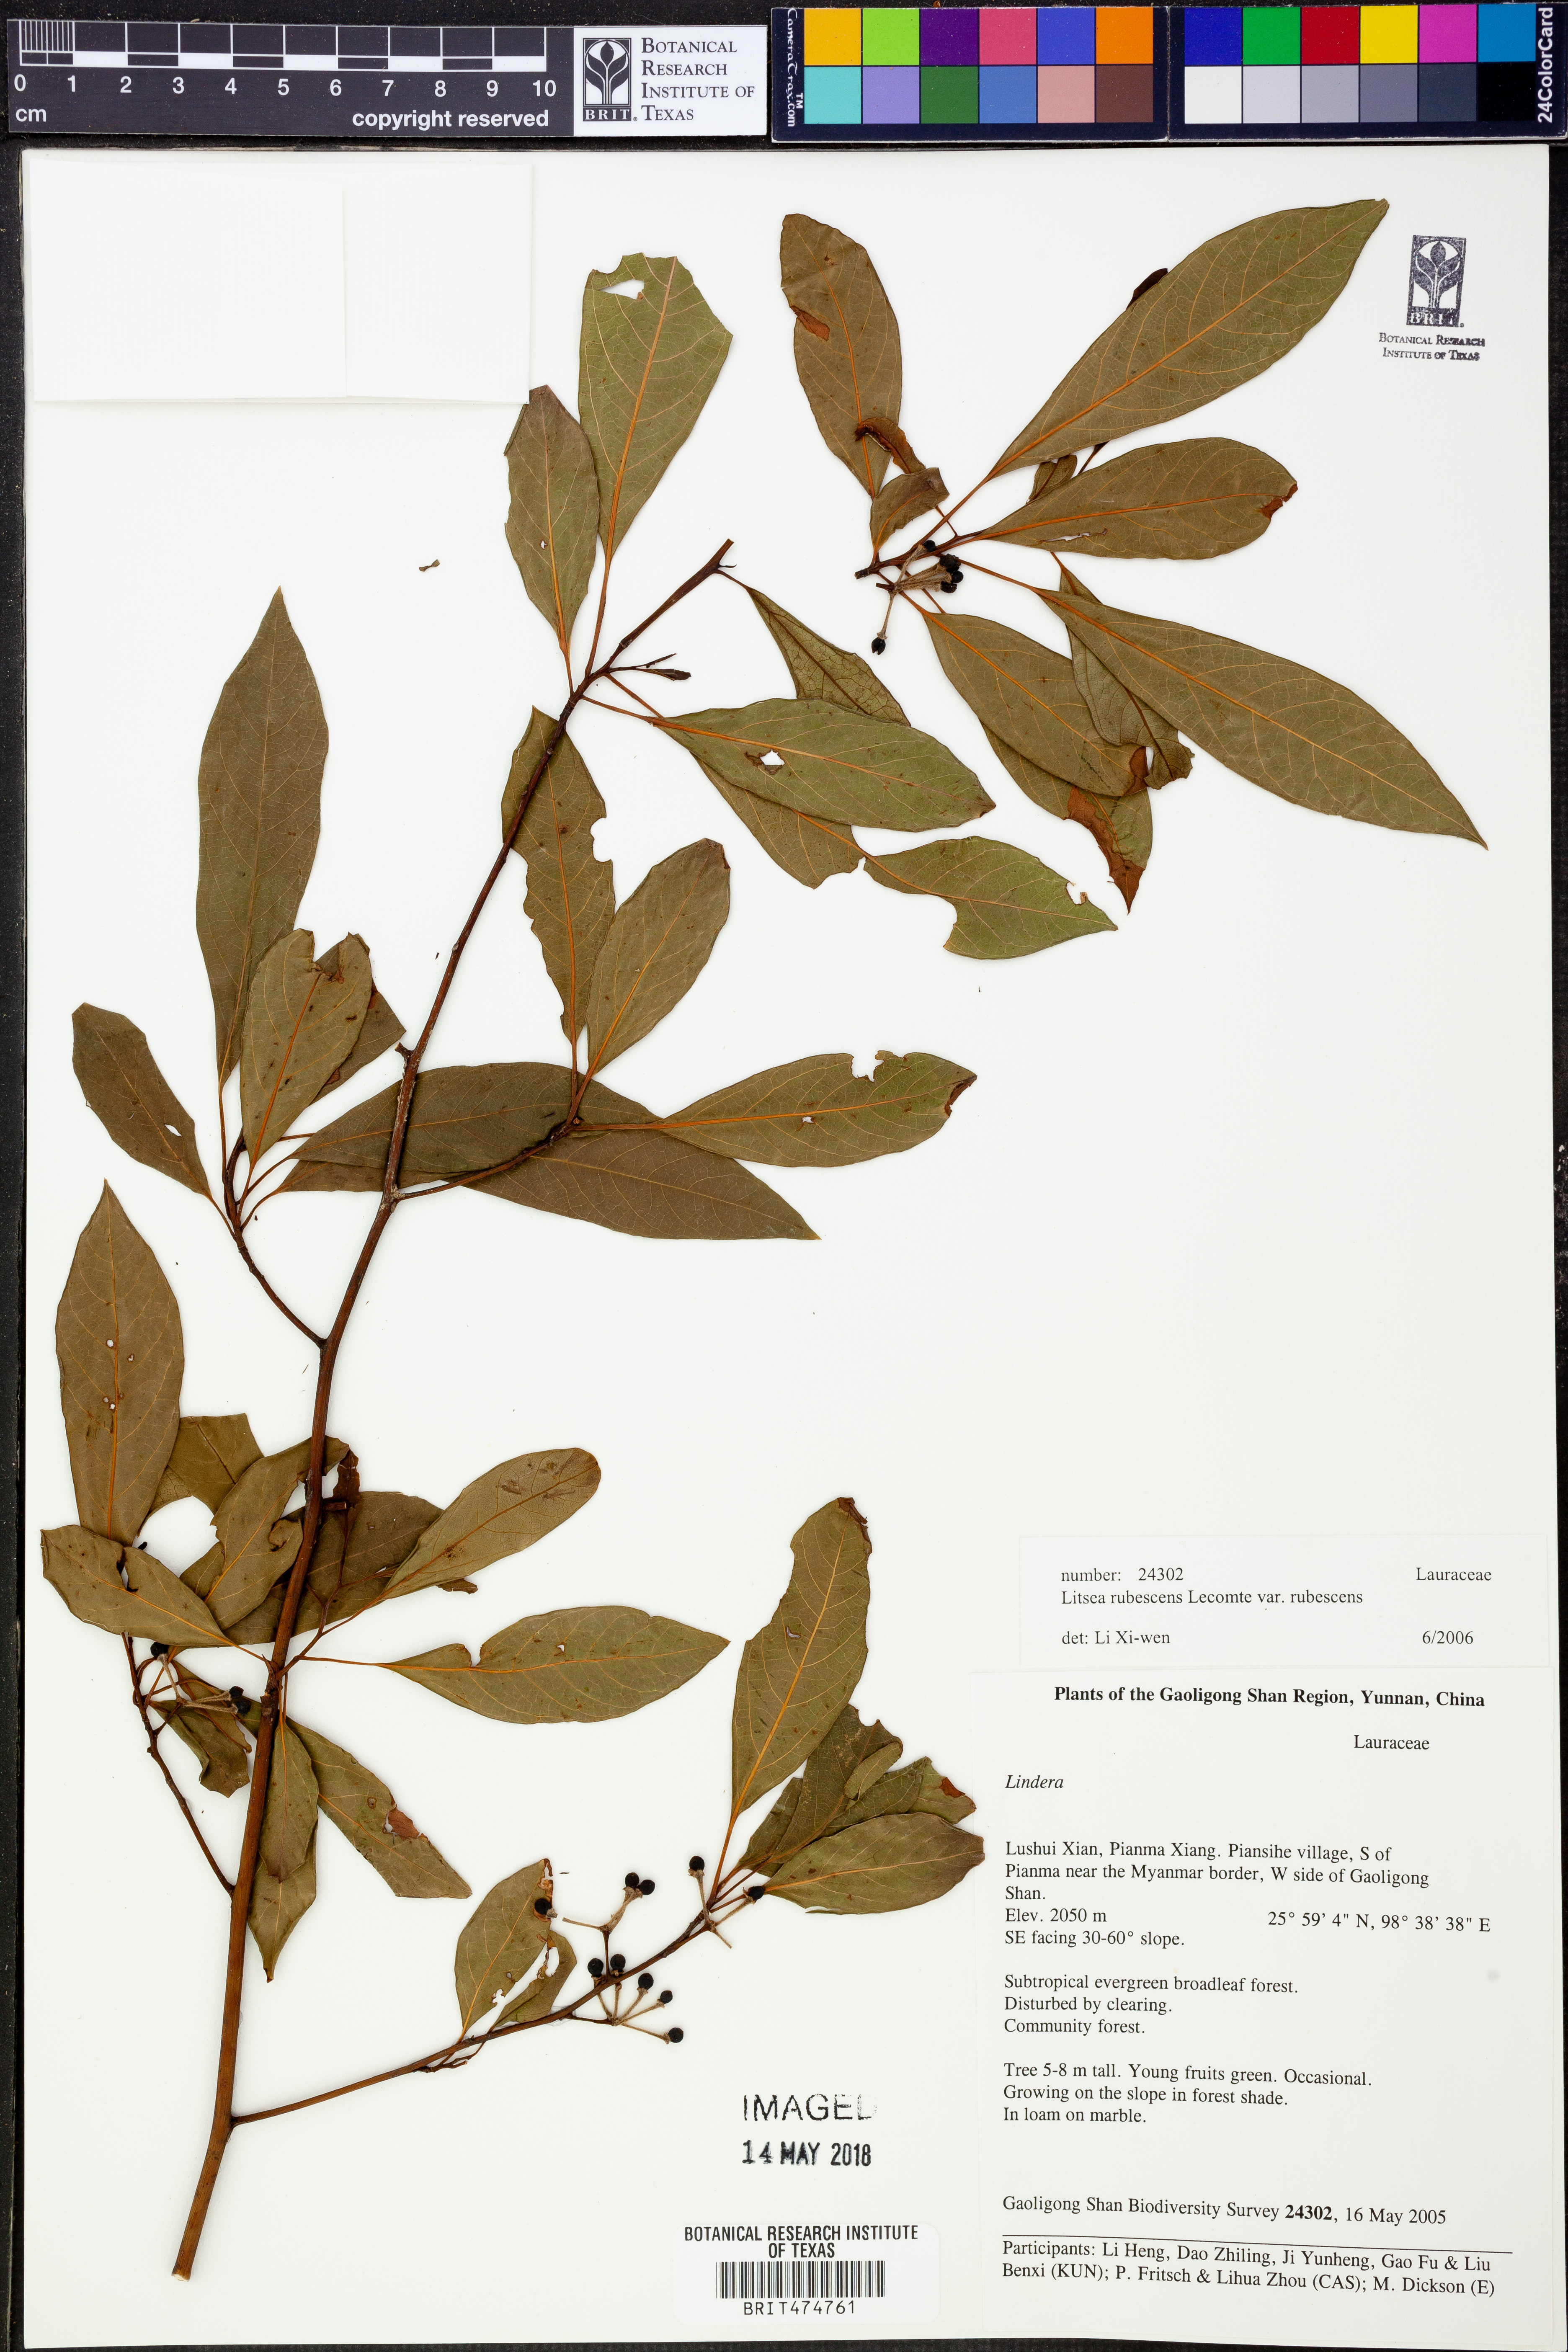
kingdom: Plantae
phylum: Tracheophyta
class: Magnoliopsida
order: Laurales
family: Lauraceae
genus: Litsea
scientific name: Litsea rubescens
